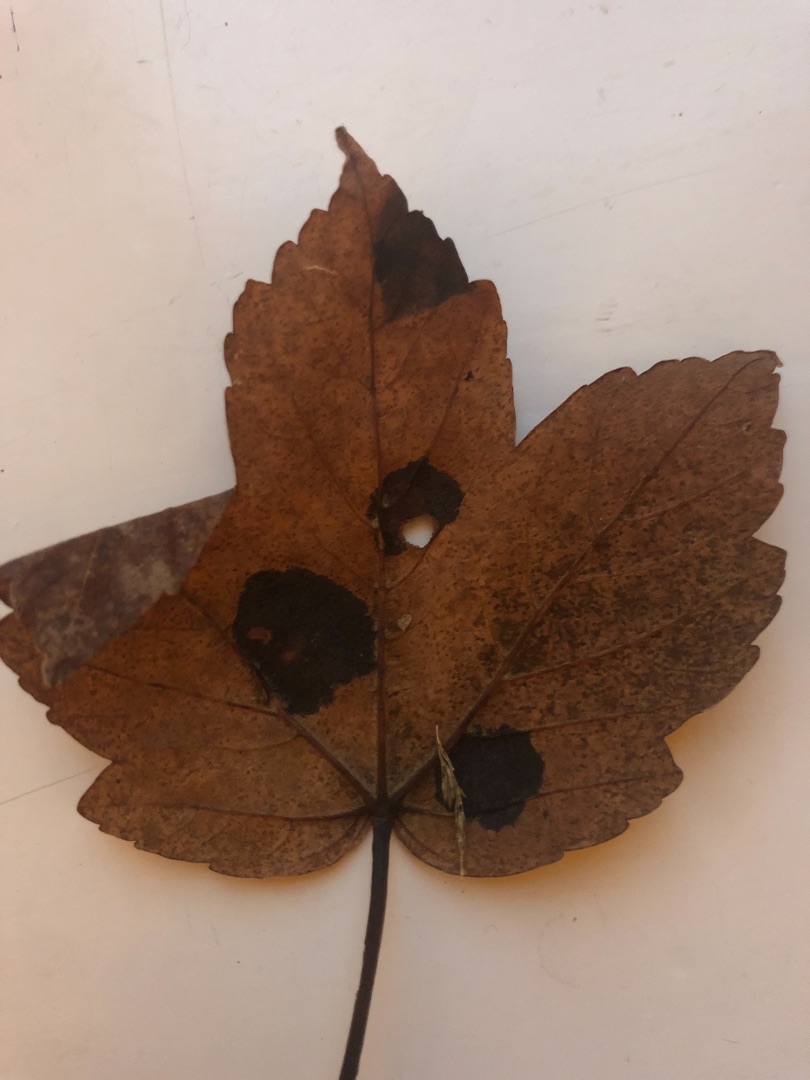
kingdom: Fungi
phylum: Ascomycota
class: Leotiomycetes
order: Rhytismatales
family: Rhytismataceae
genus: Rhytisma
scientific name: Rhytisma acerinum
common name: Ahorn-rynkeplet
